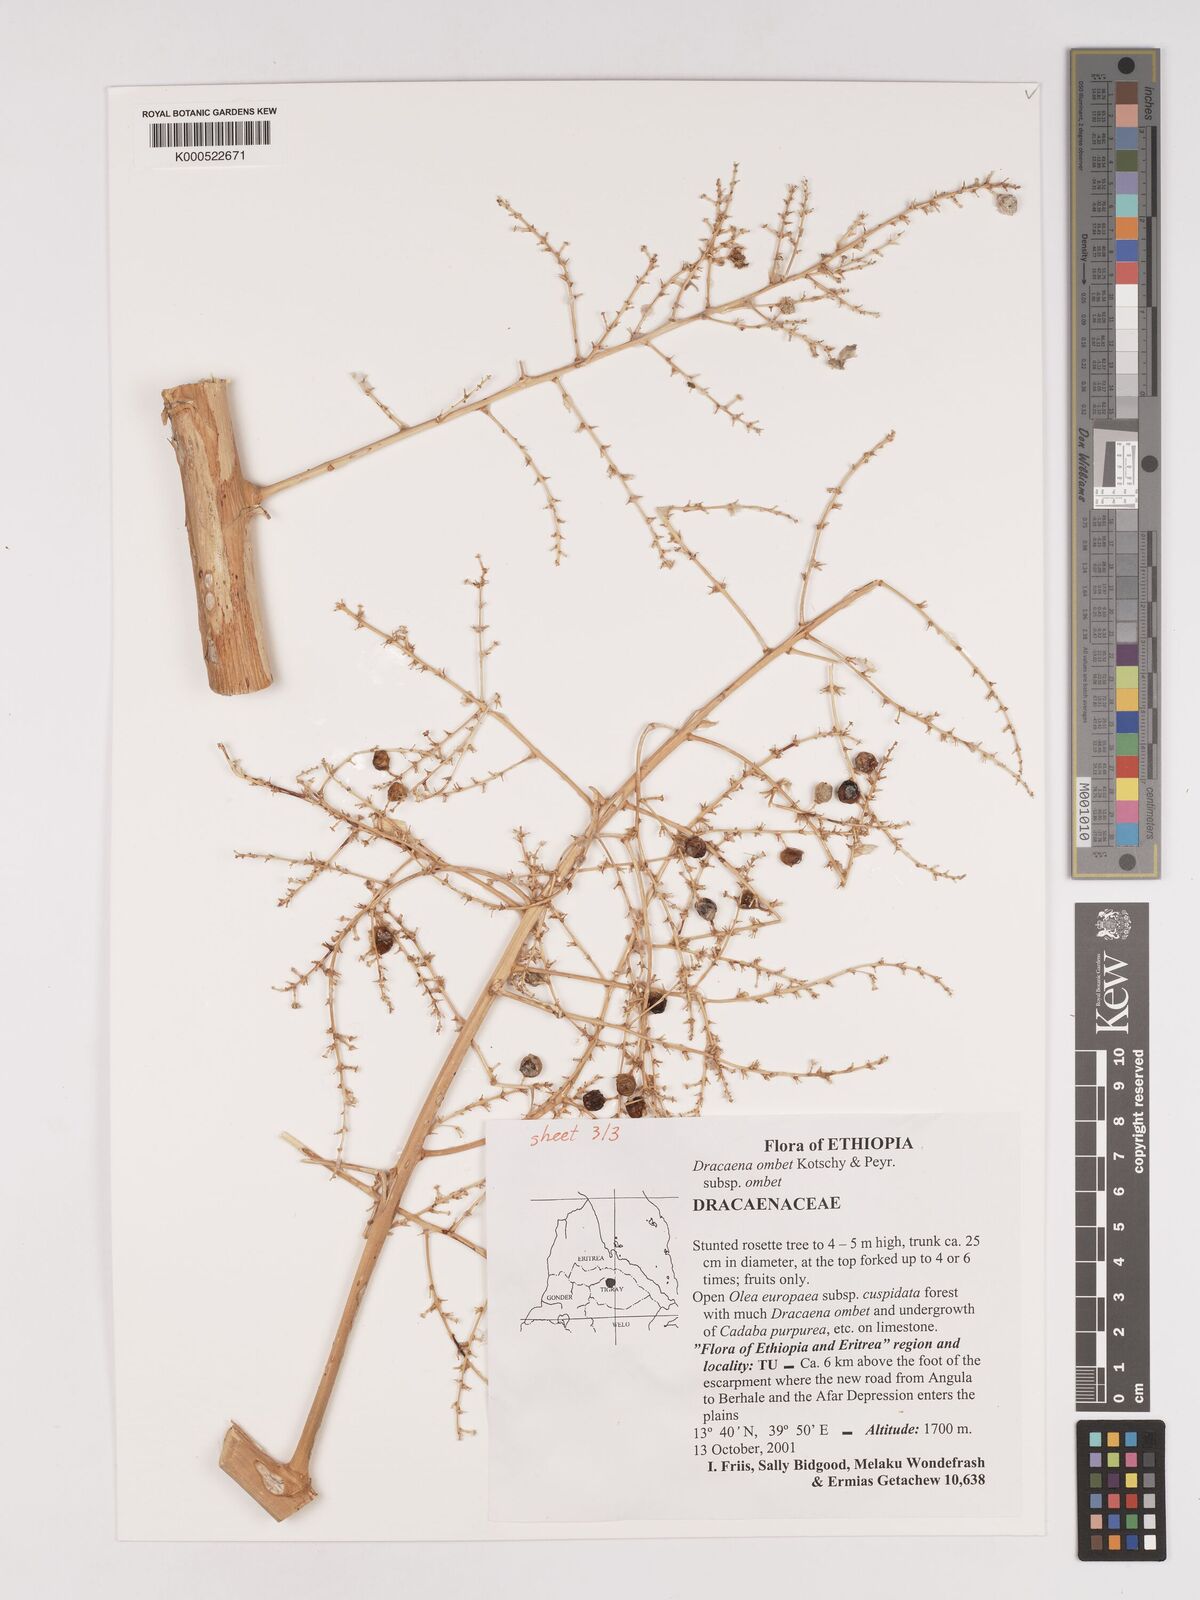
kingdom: Plantae
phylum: Tracheophyta
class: Liliopsida
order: Asparagales
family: Asparagaceae
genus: Dracaena
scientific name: Dracaena ombet
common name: Gabal elba dragon tree
